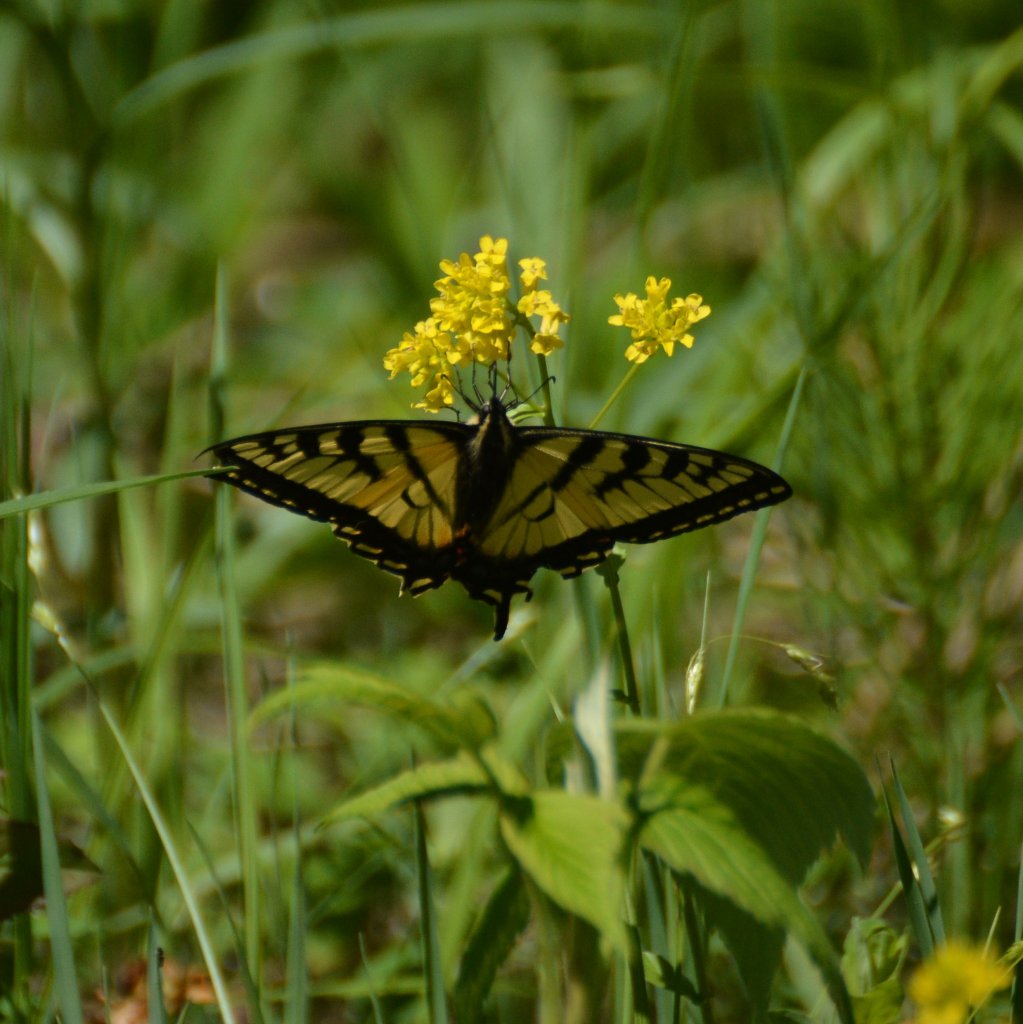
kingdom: Animalia
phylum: Arthropoda
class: Insecta
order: Lepidoptera
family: Papilionidae
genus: Pterourus
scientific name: Pterourus canadensis
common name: Canadian Tiger Swallowtail
